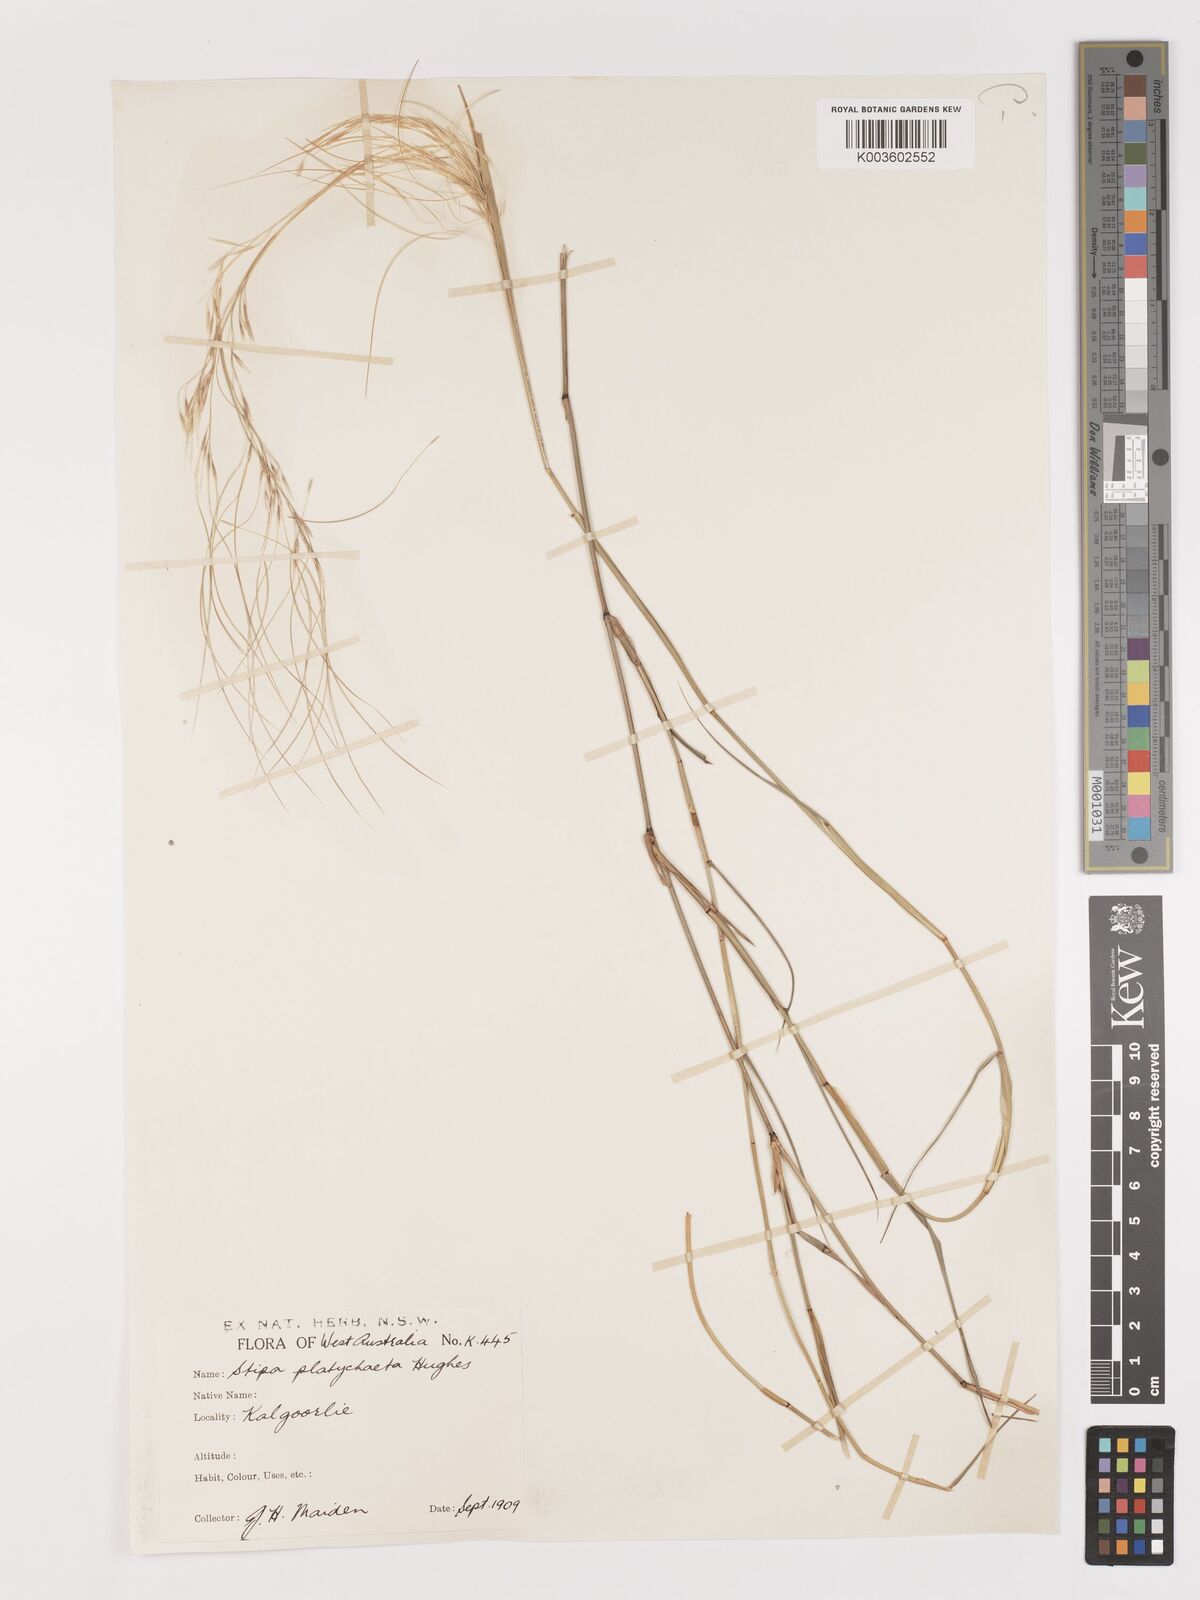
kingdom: Plantae
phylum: Tracheophyta
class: Liliopsida
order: Poales
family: Poaceae
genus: Austrostipa
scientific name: Austrostipa platychaeta
